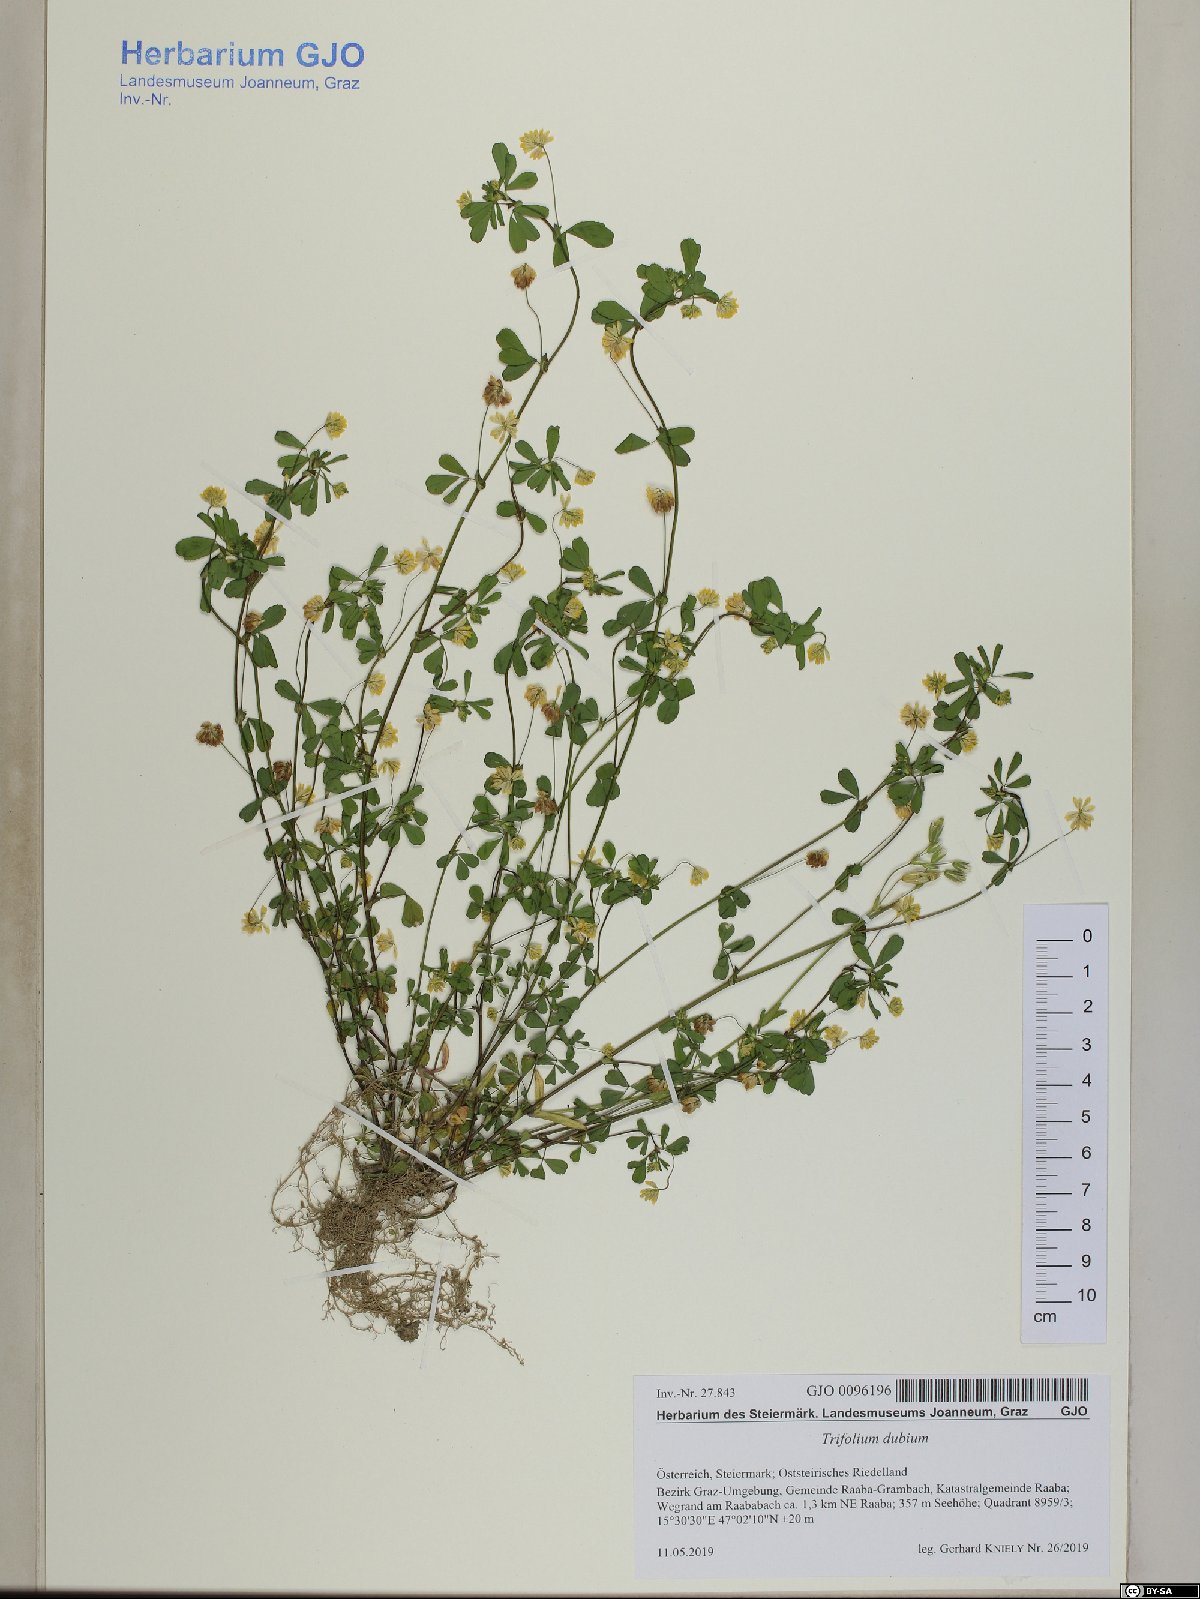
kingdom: Plantae
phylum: Tracheophyta
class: Magnoliopsida
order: Fabales
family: Fabaceae
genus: Trifolium
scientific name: Trifolium dubium
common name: Suckling clover
